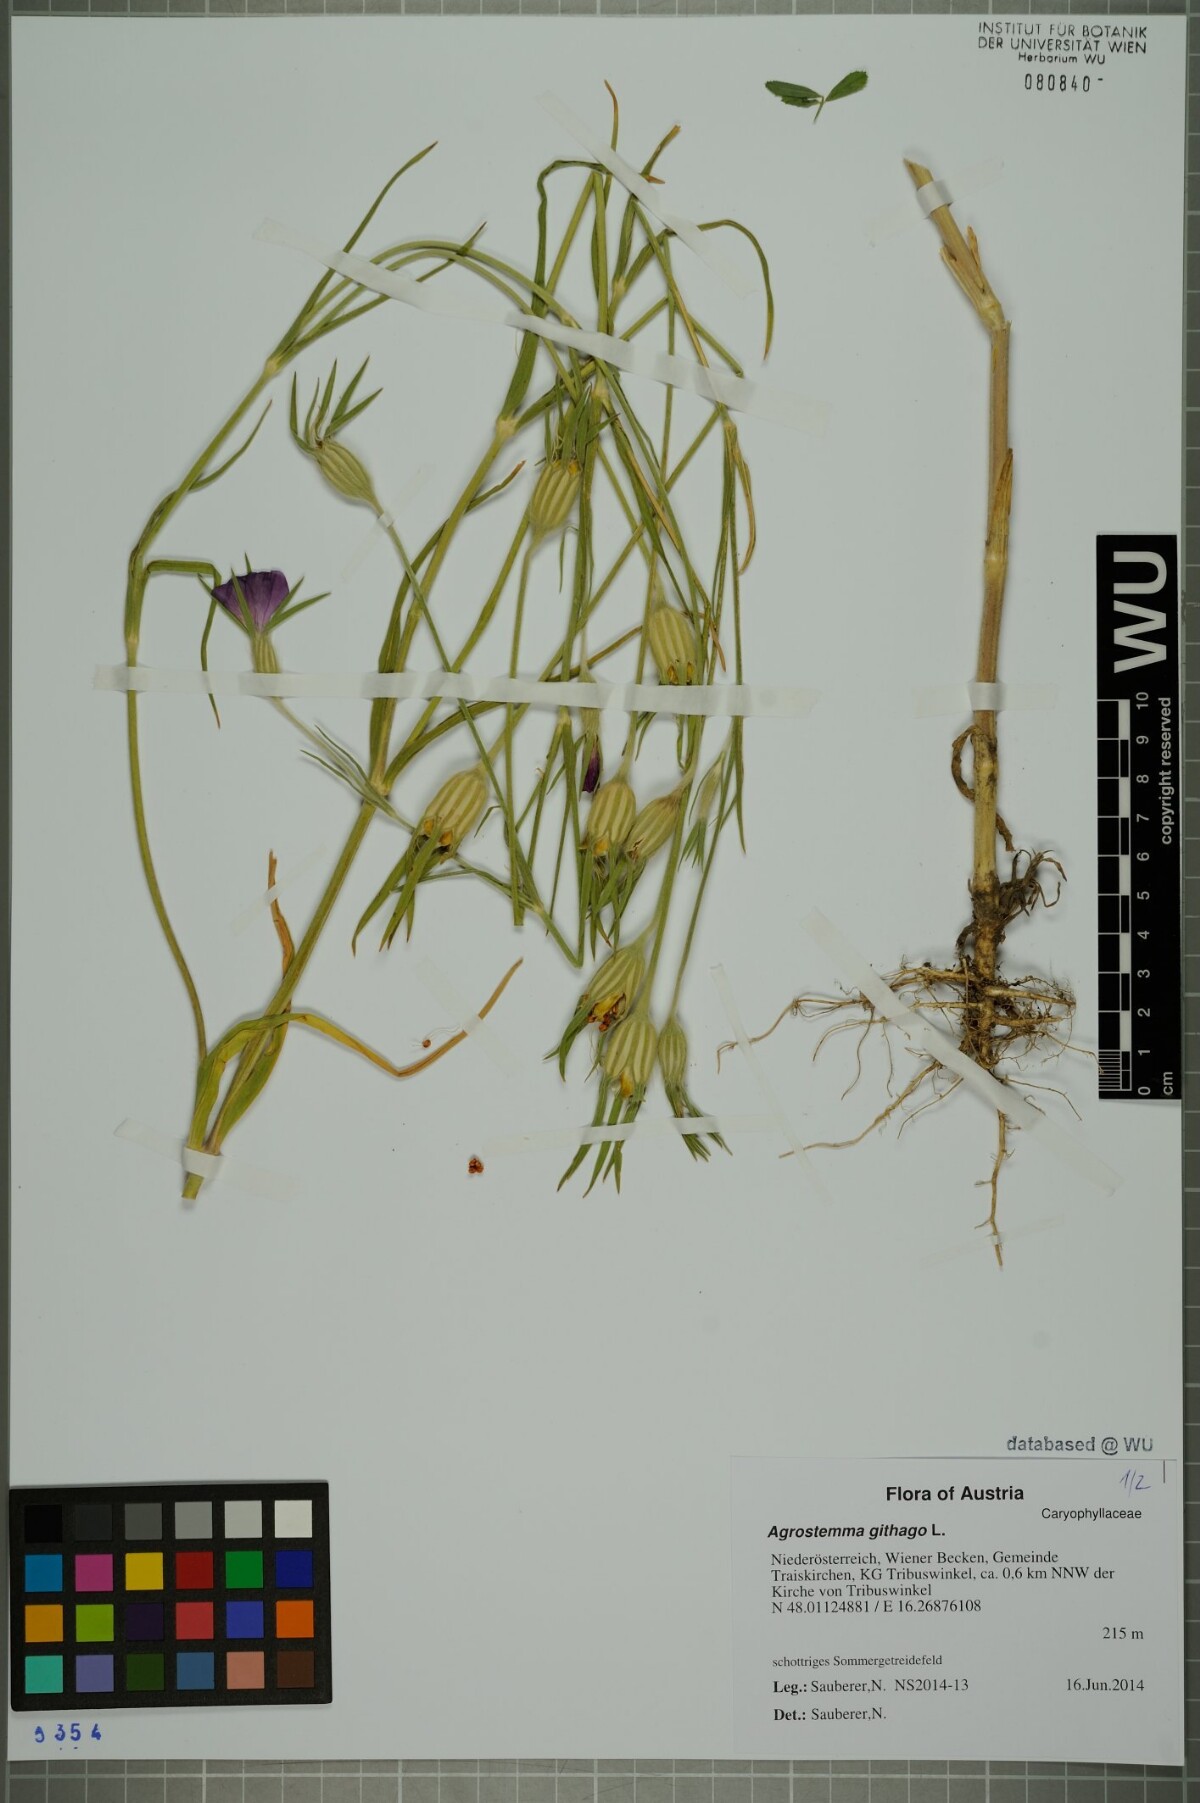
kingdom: Plantae
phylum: Tracheophyta
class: Magnoliopsida
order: Caryophyllales
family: Caryophyllaceae
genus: Agrostemma
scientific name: Agrostemma githago
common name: Common corncockle
